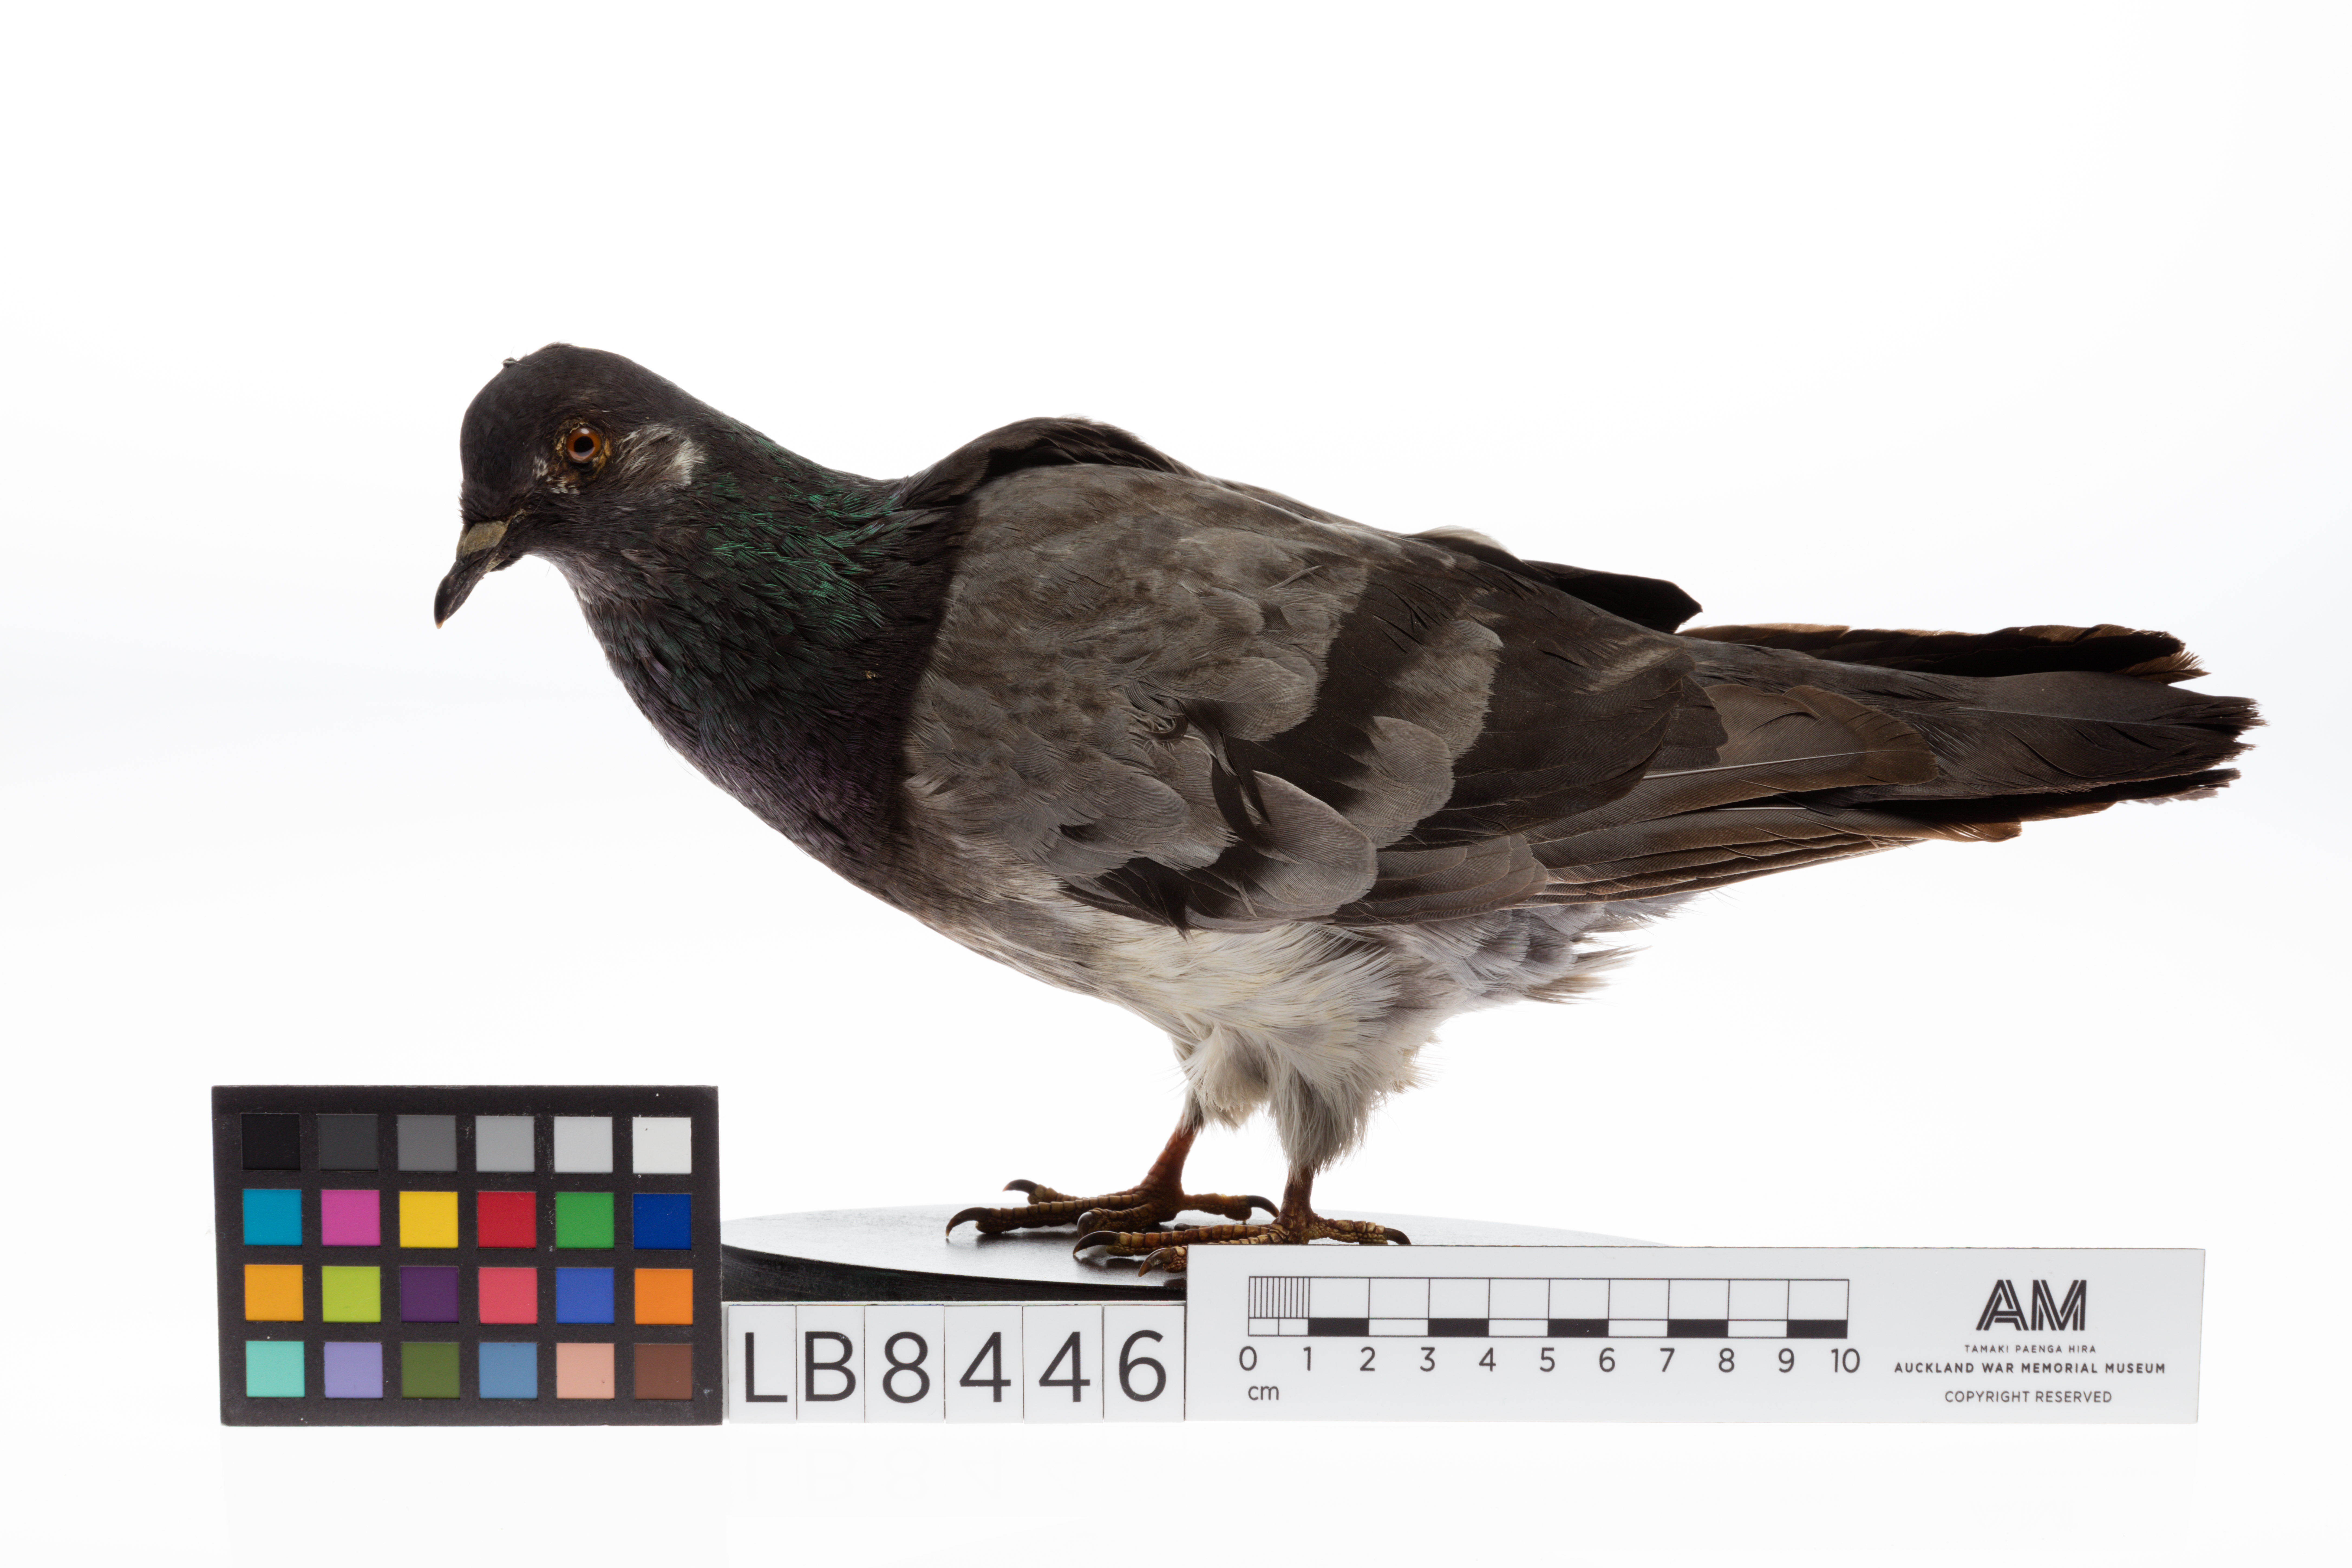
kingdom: Animalia
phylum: Chordata
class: Aves
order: Columbiformes
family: Columbidae
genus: Columba
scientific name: Columba livia
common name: Rock pigeon
